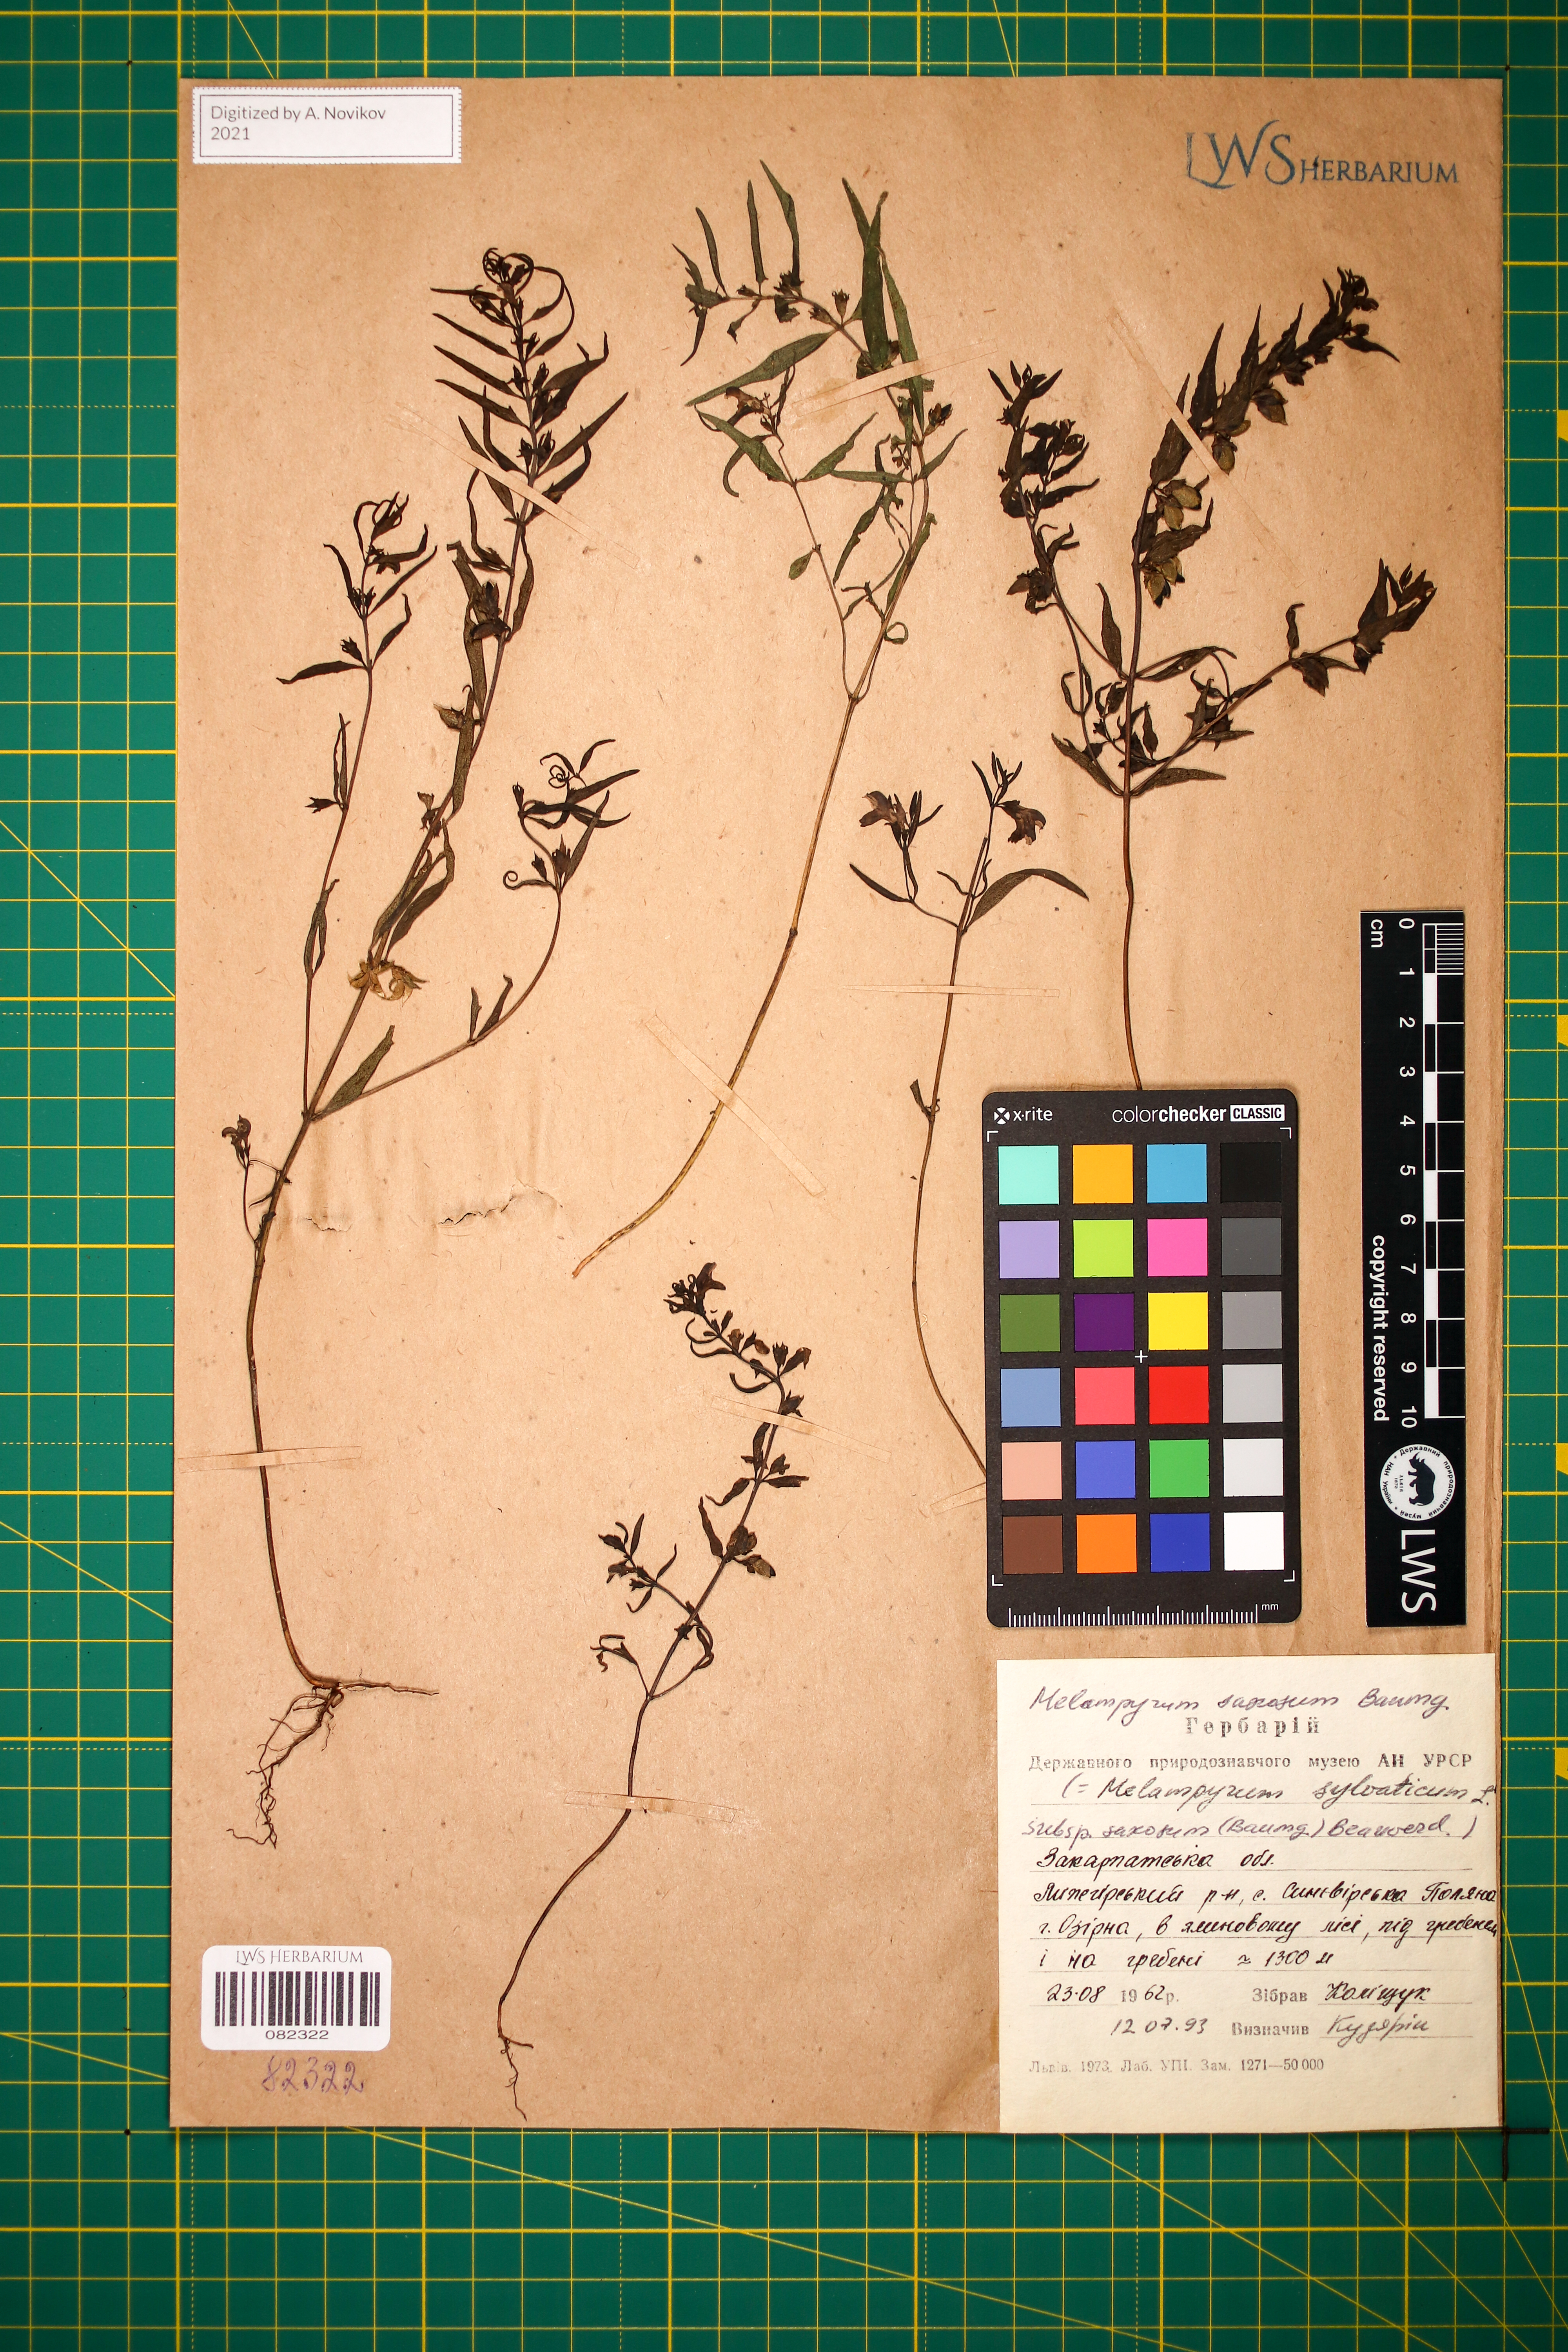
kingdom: Plantae
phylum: Tracheophyta
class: Magnoliopsida
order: Lamiales
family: Orobanchaceae
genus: Melampyrum
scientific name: Melampyrum saxosum
